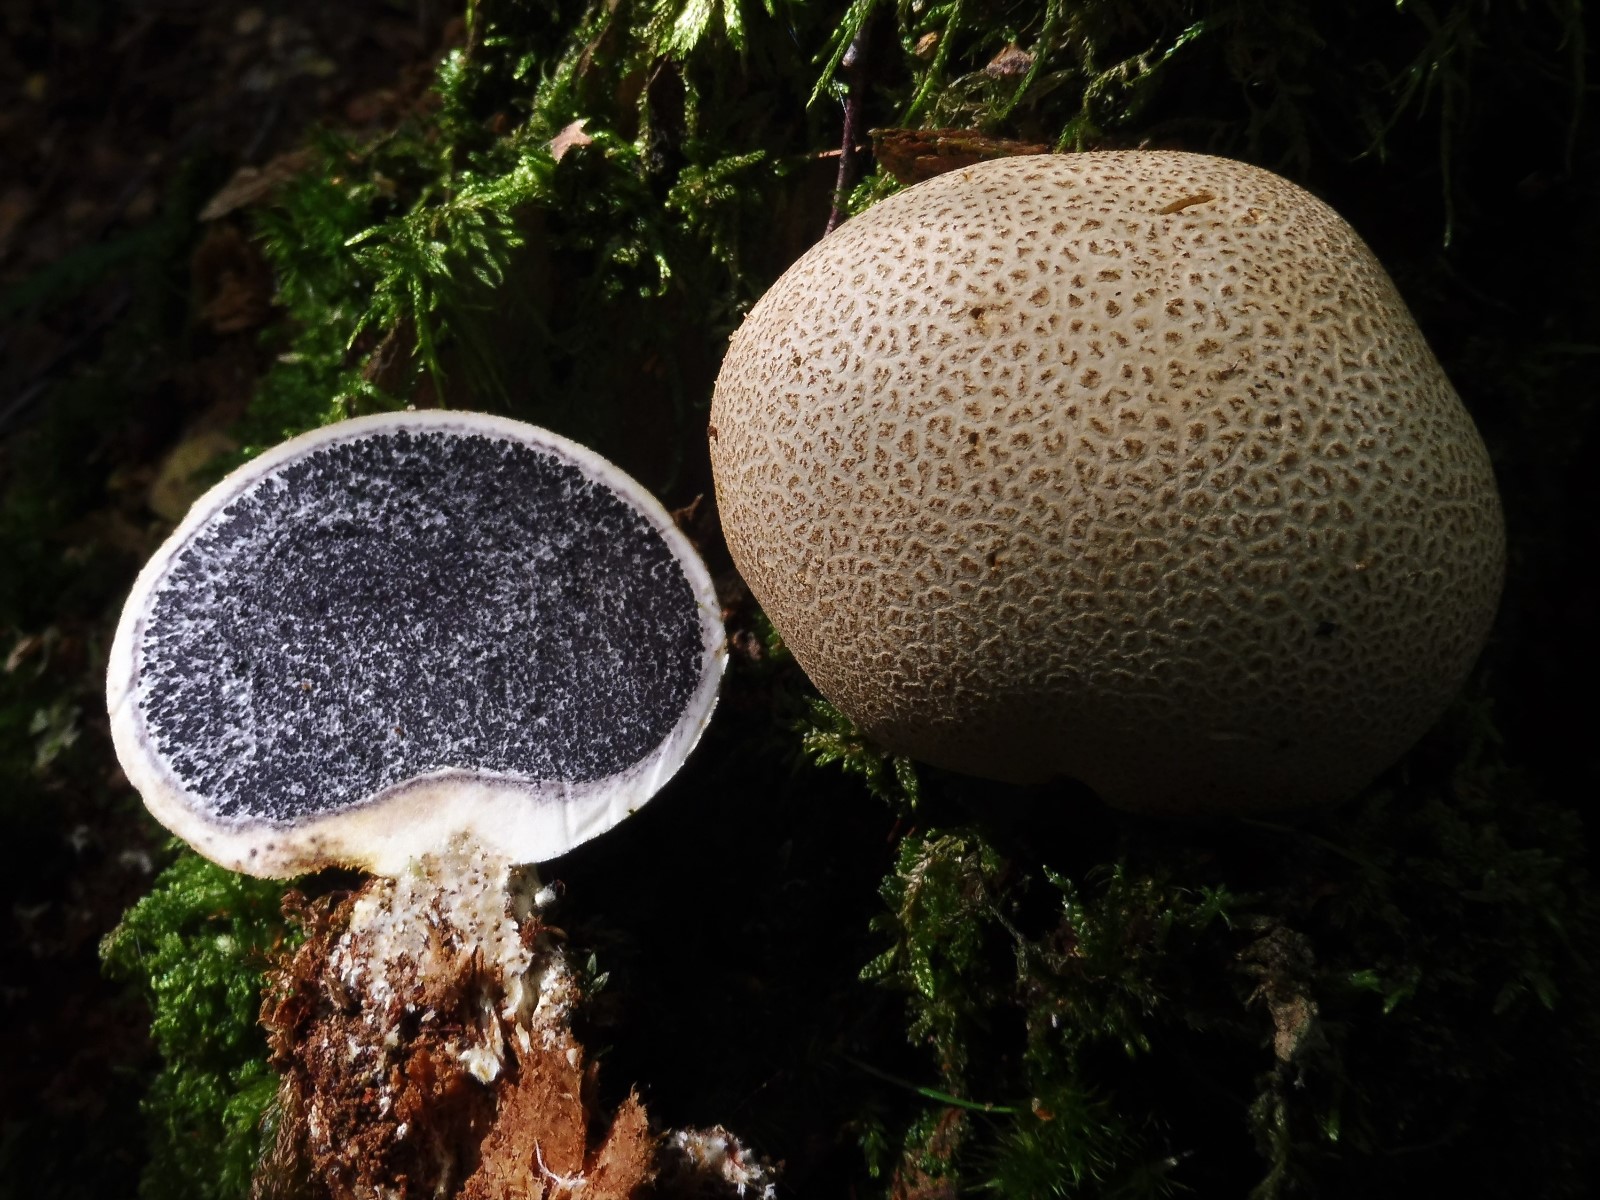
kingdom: Fungi
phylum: Basidiomycota
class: Agaricomycetes
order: Boletales
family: Sclerodermataceae
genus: Scleroderma
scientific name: Scleroderma citrinum
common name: almindelig bruskbold
